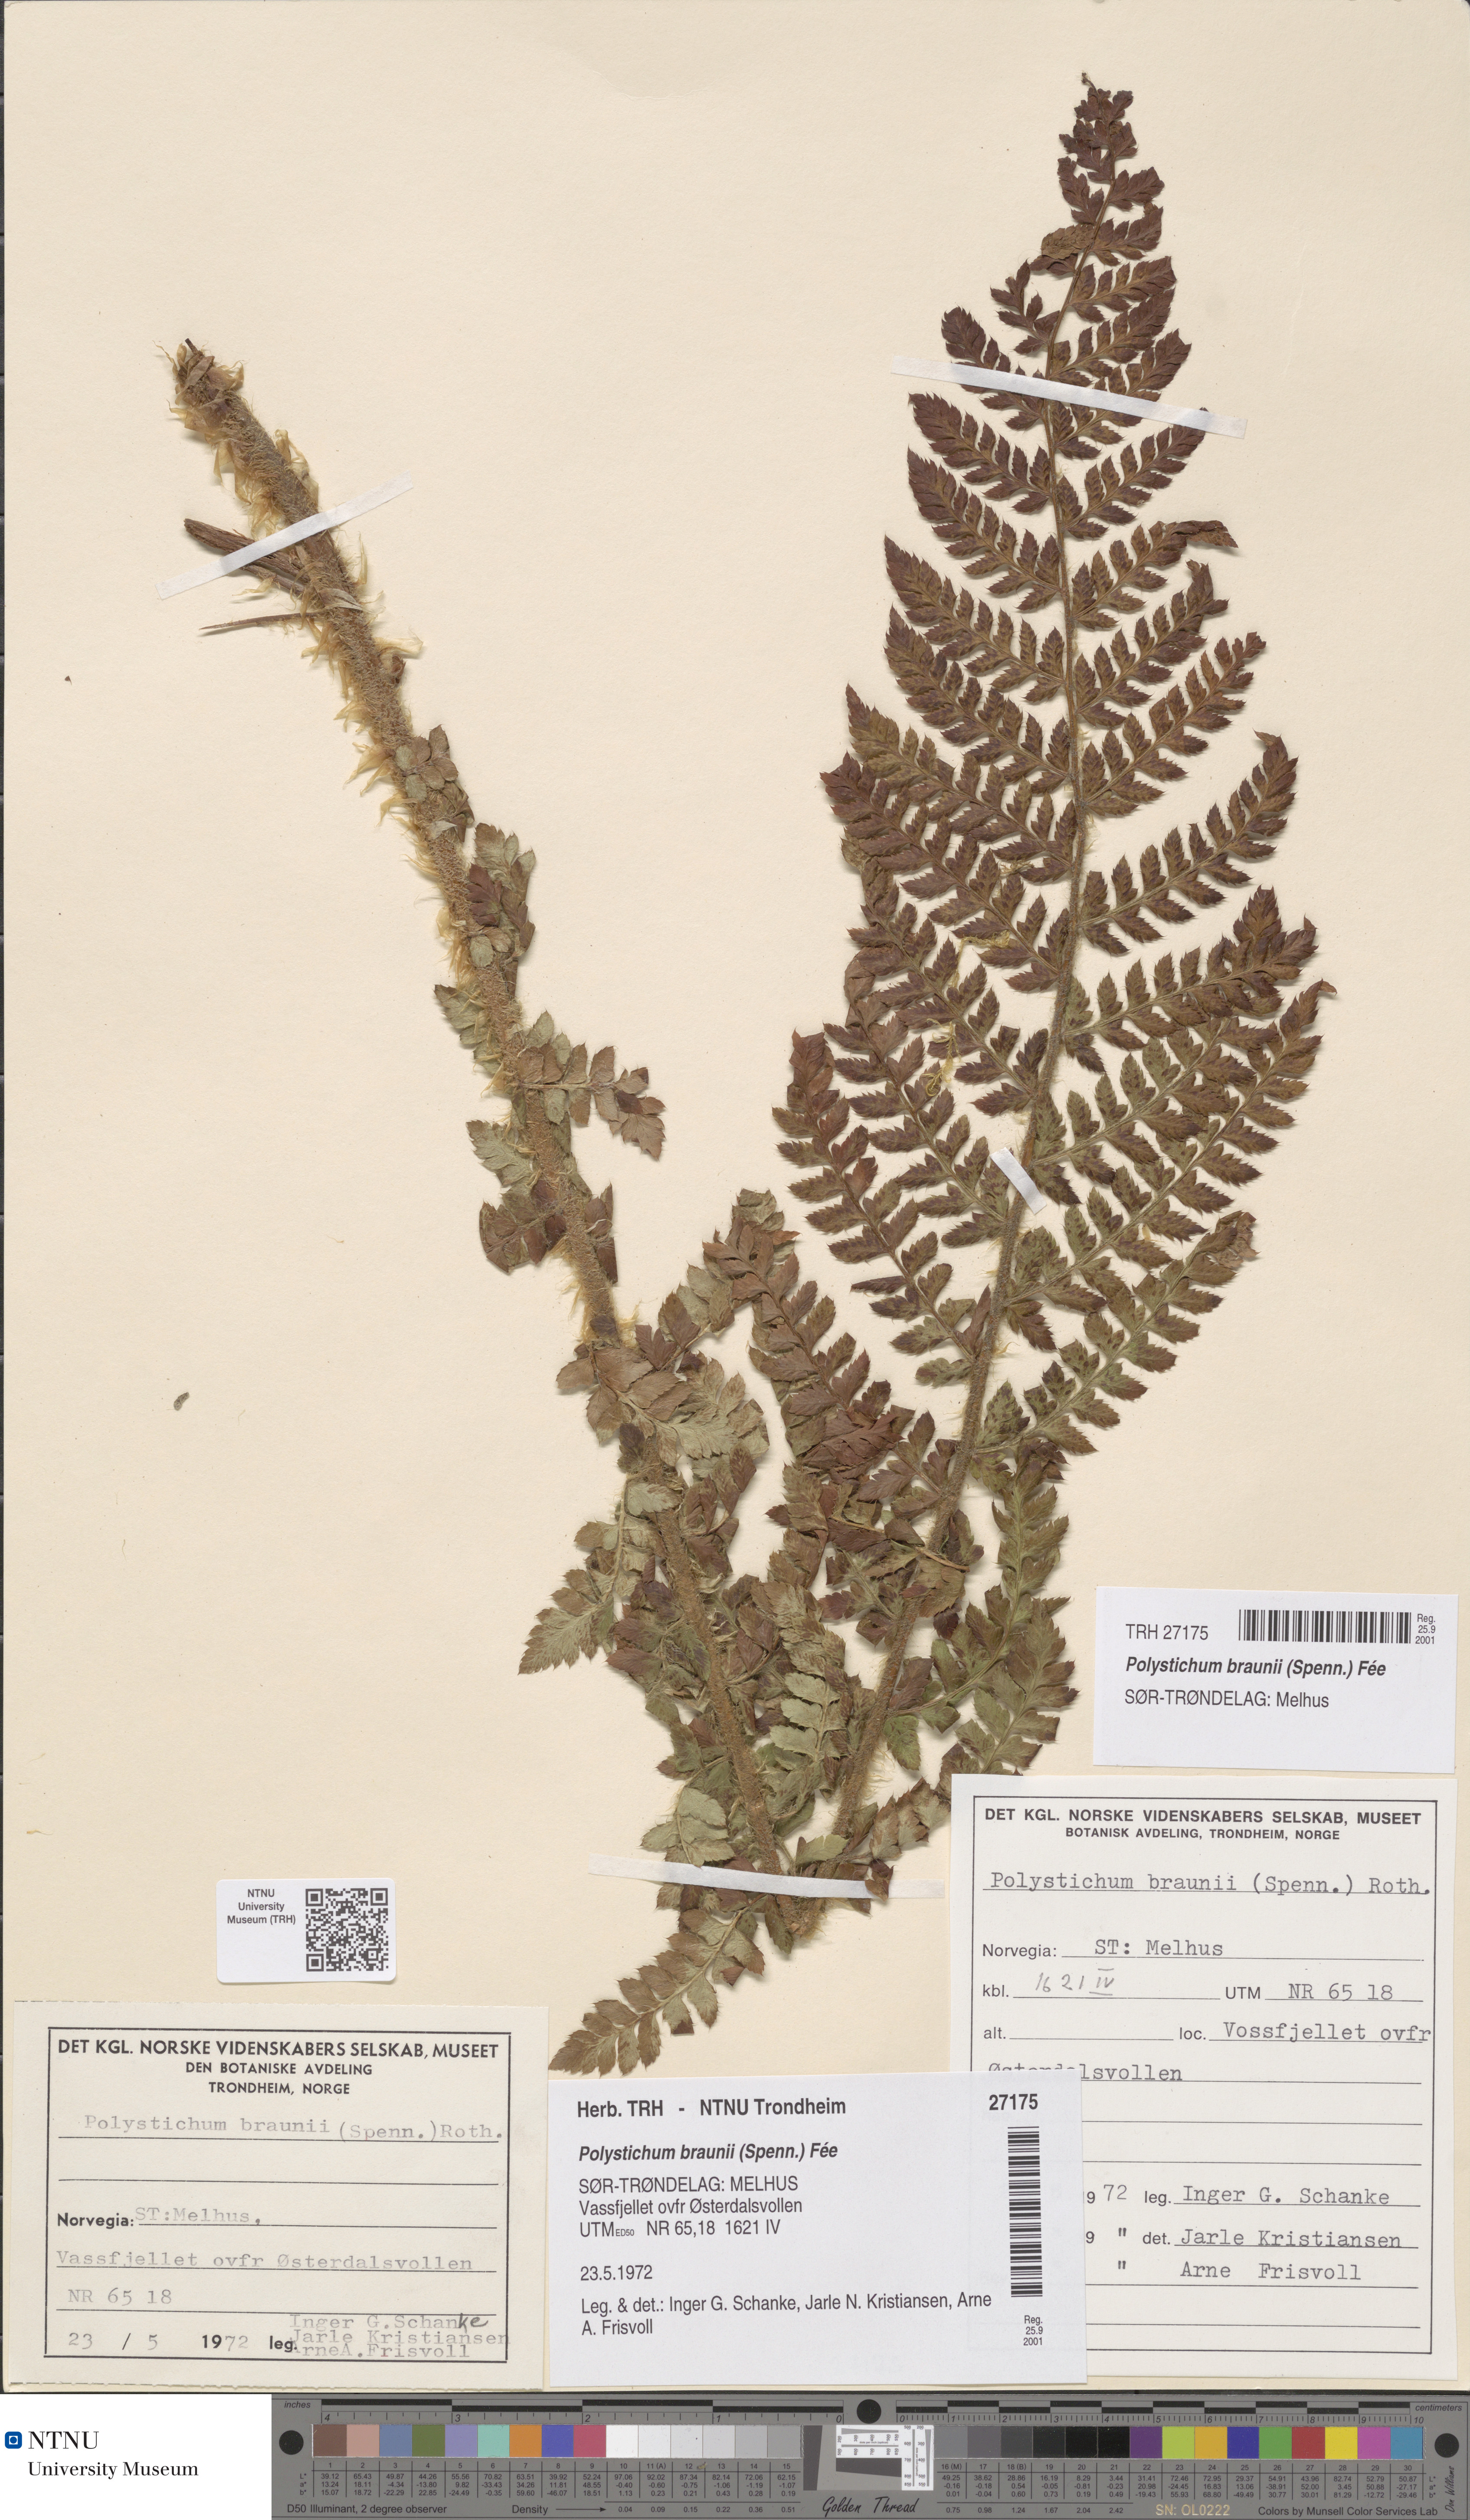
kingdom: Plantae
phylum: Tracheophyta
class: Polypodiopsida
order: Polypodiales
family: Dryopteridaceae
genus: Polystichum
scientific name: Polystichum braunii
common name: Braun's holly fern
